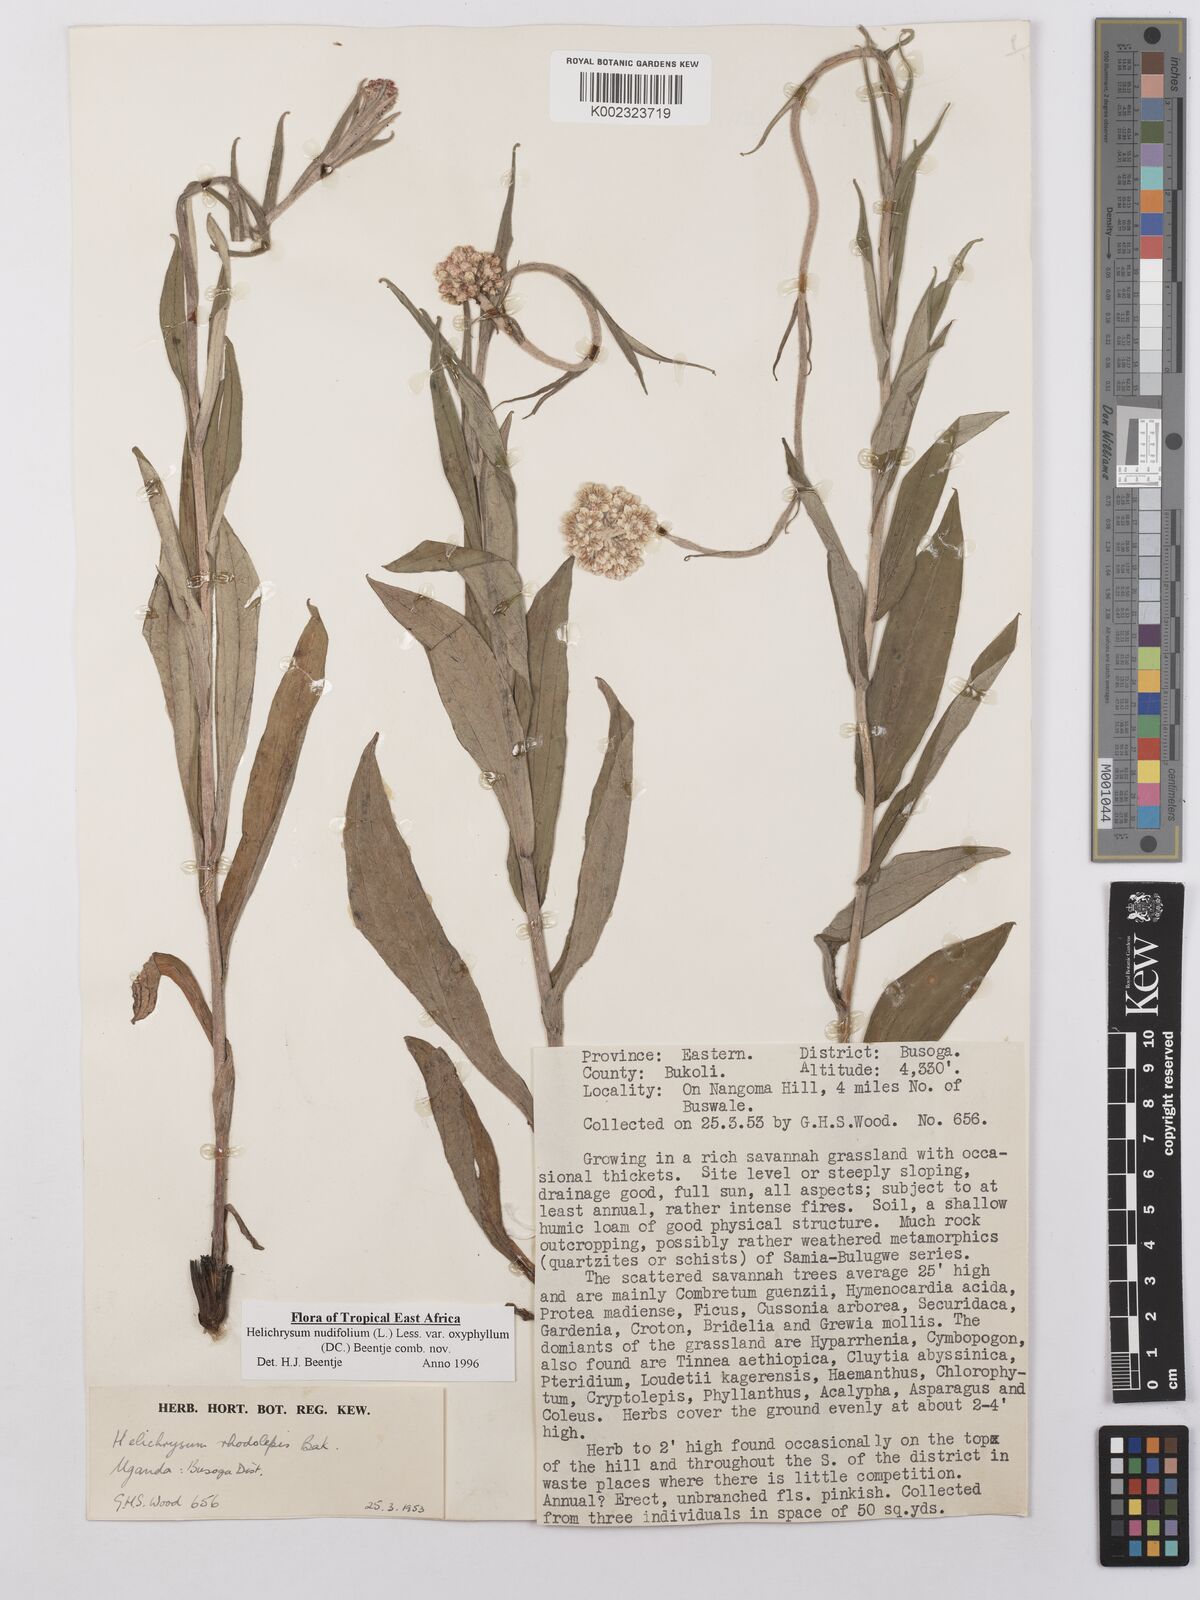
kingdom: Plantae
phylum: Tracheophyta
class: Magnoliopsida
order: Asterales
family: Asteraceae
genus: Helichrysum
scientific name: Helichrysum nudifolium
